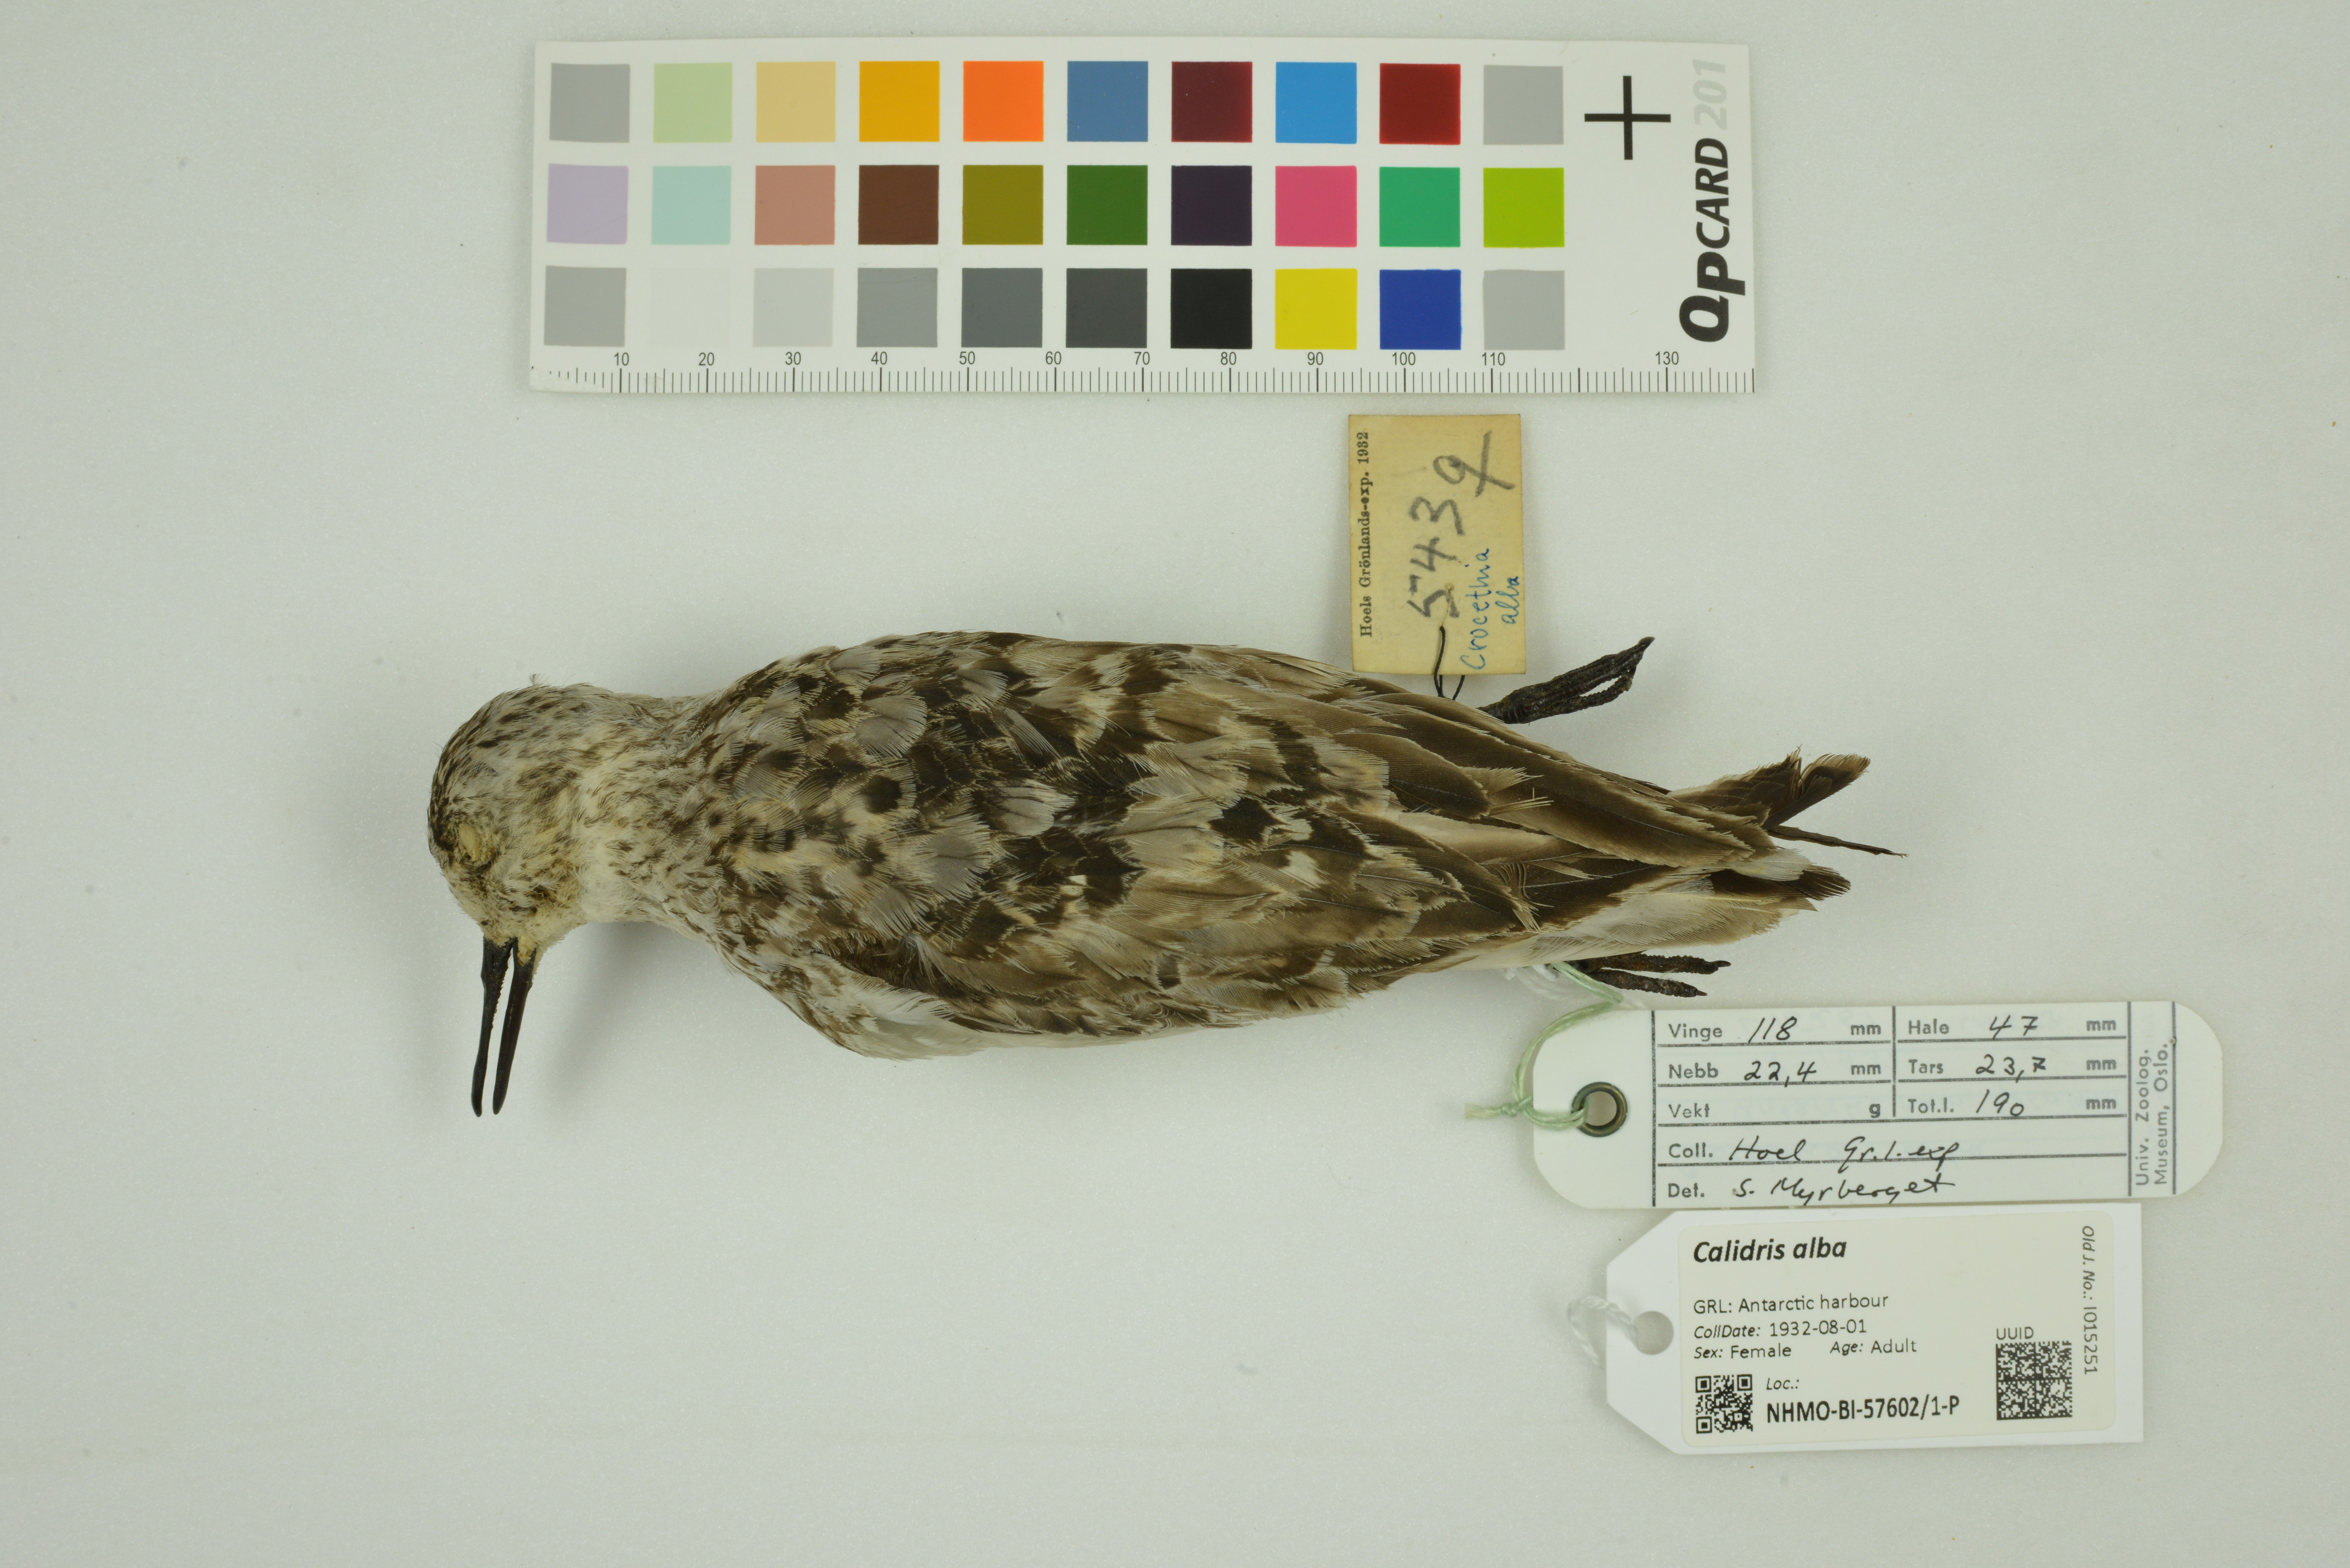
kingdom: Animalia
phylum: Chordata
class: Aves
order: Charadriiformes
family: Scolopacidae
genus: Calidris
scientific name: Calidris alba
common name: Sanderling
